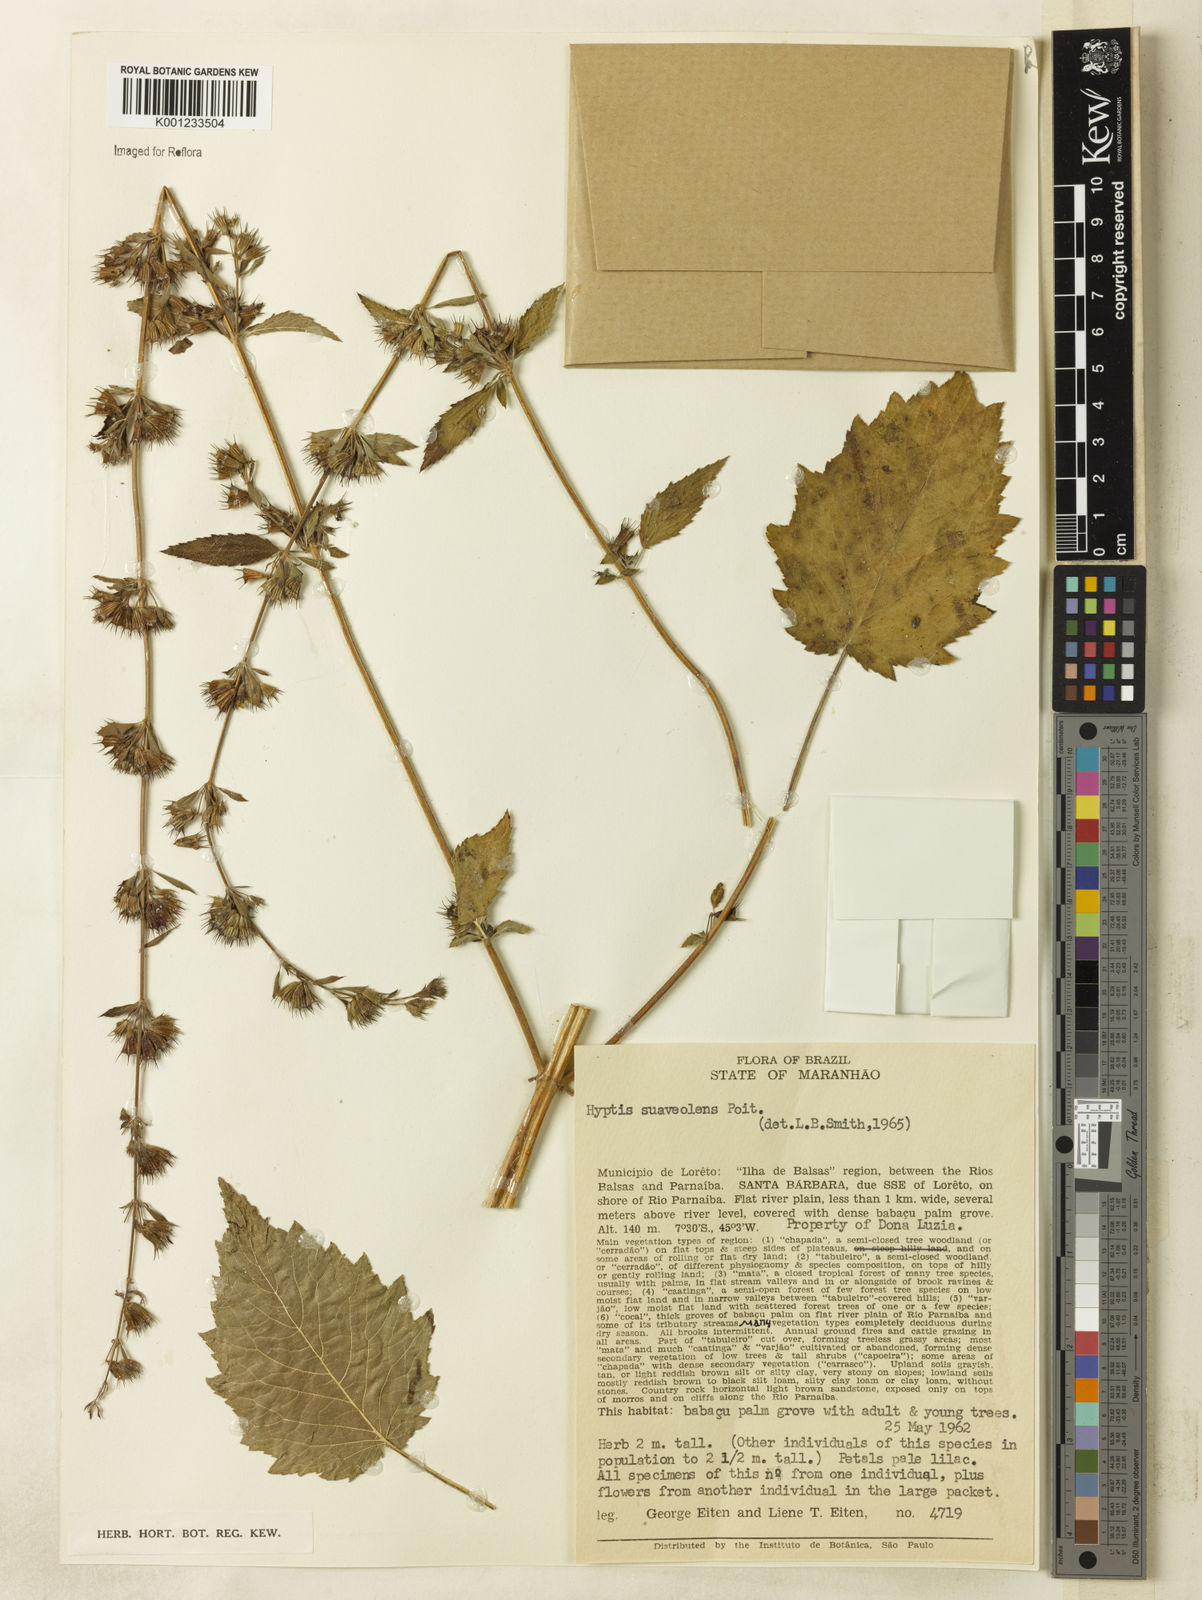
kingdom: Plantae
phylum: Tracheophyta
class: Magnoliopsida
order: Lamiales
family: Lamiaceae
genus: Mesosphaerum
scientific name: Mesosphaerum suaveolens
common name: Pignut
